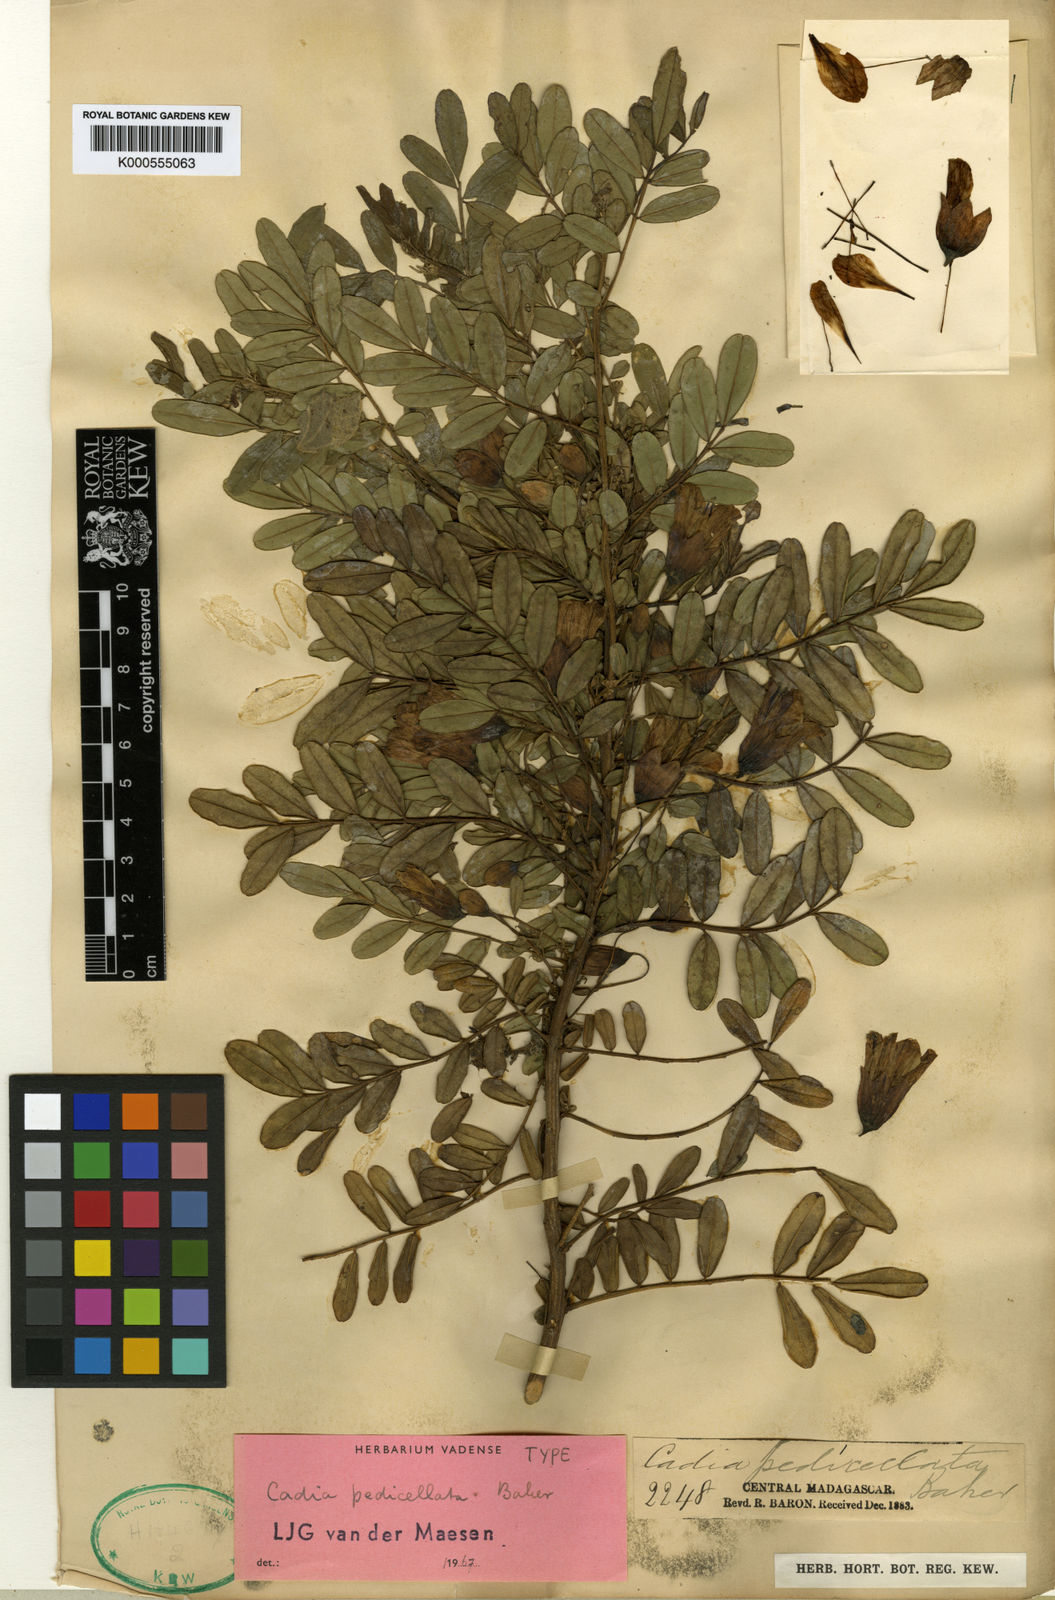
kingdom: Plantae
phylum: Tracheophyta
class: Magnoliopsida
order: Fabales
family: Fabaceae
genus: Cadia
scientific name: Cadia pedicellata
